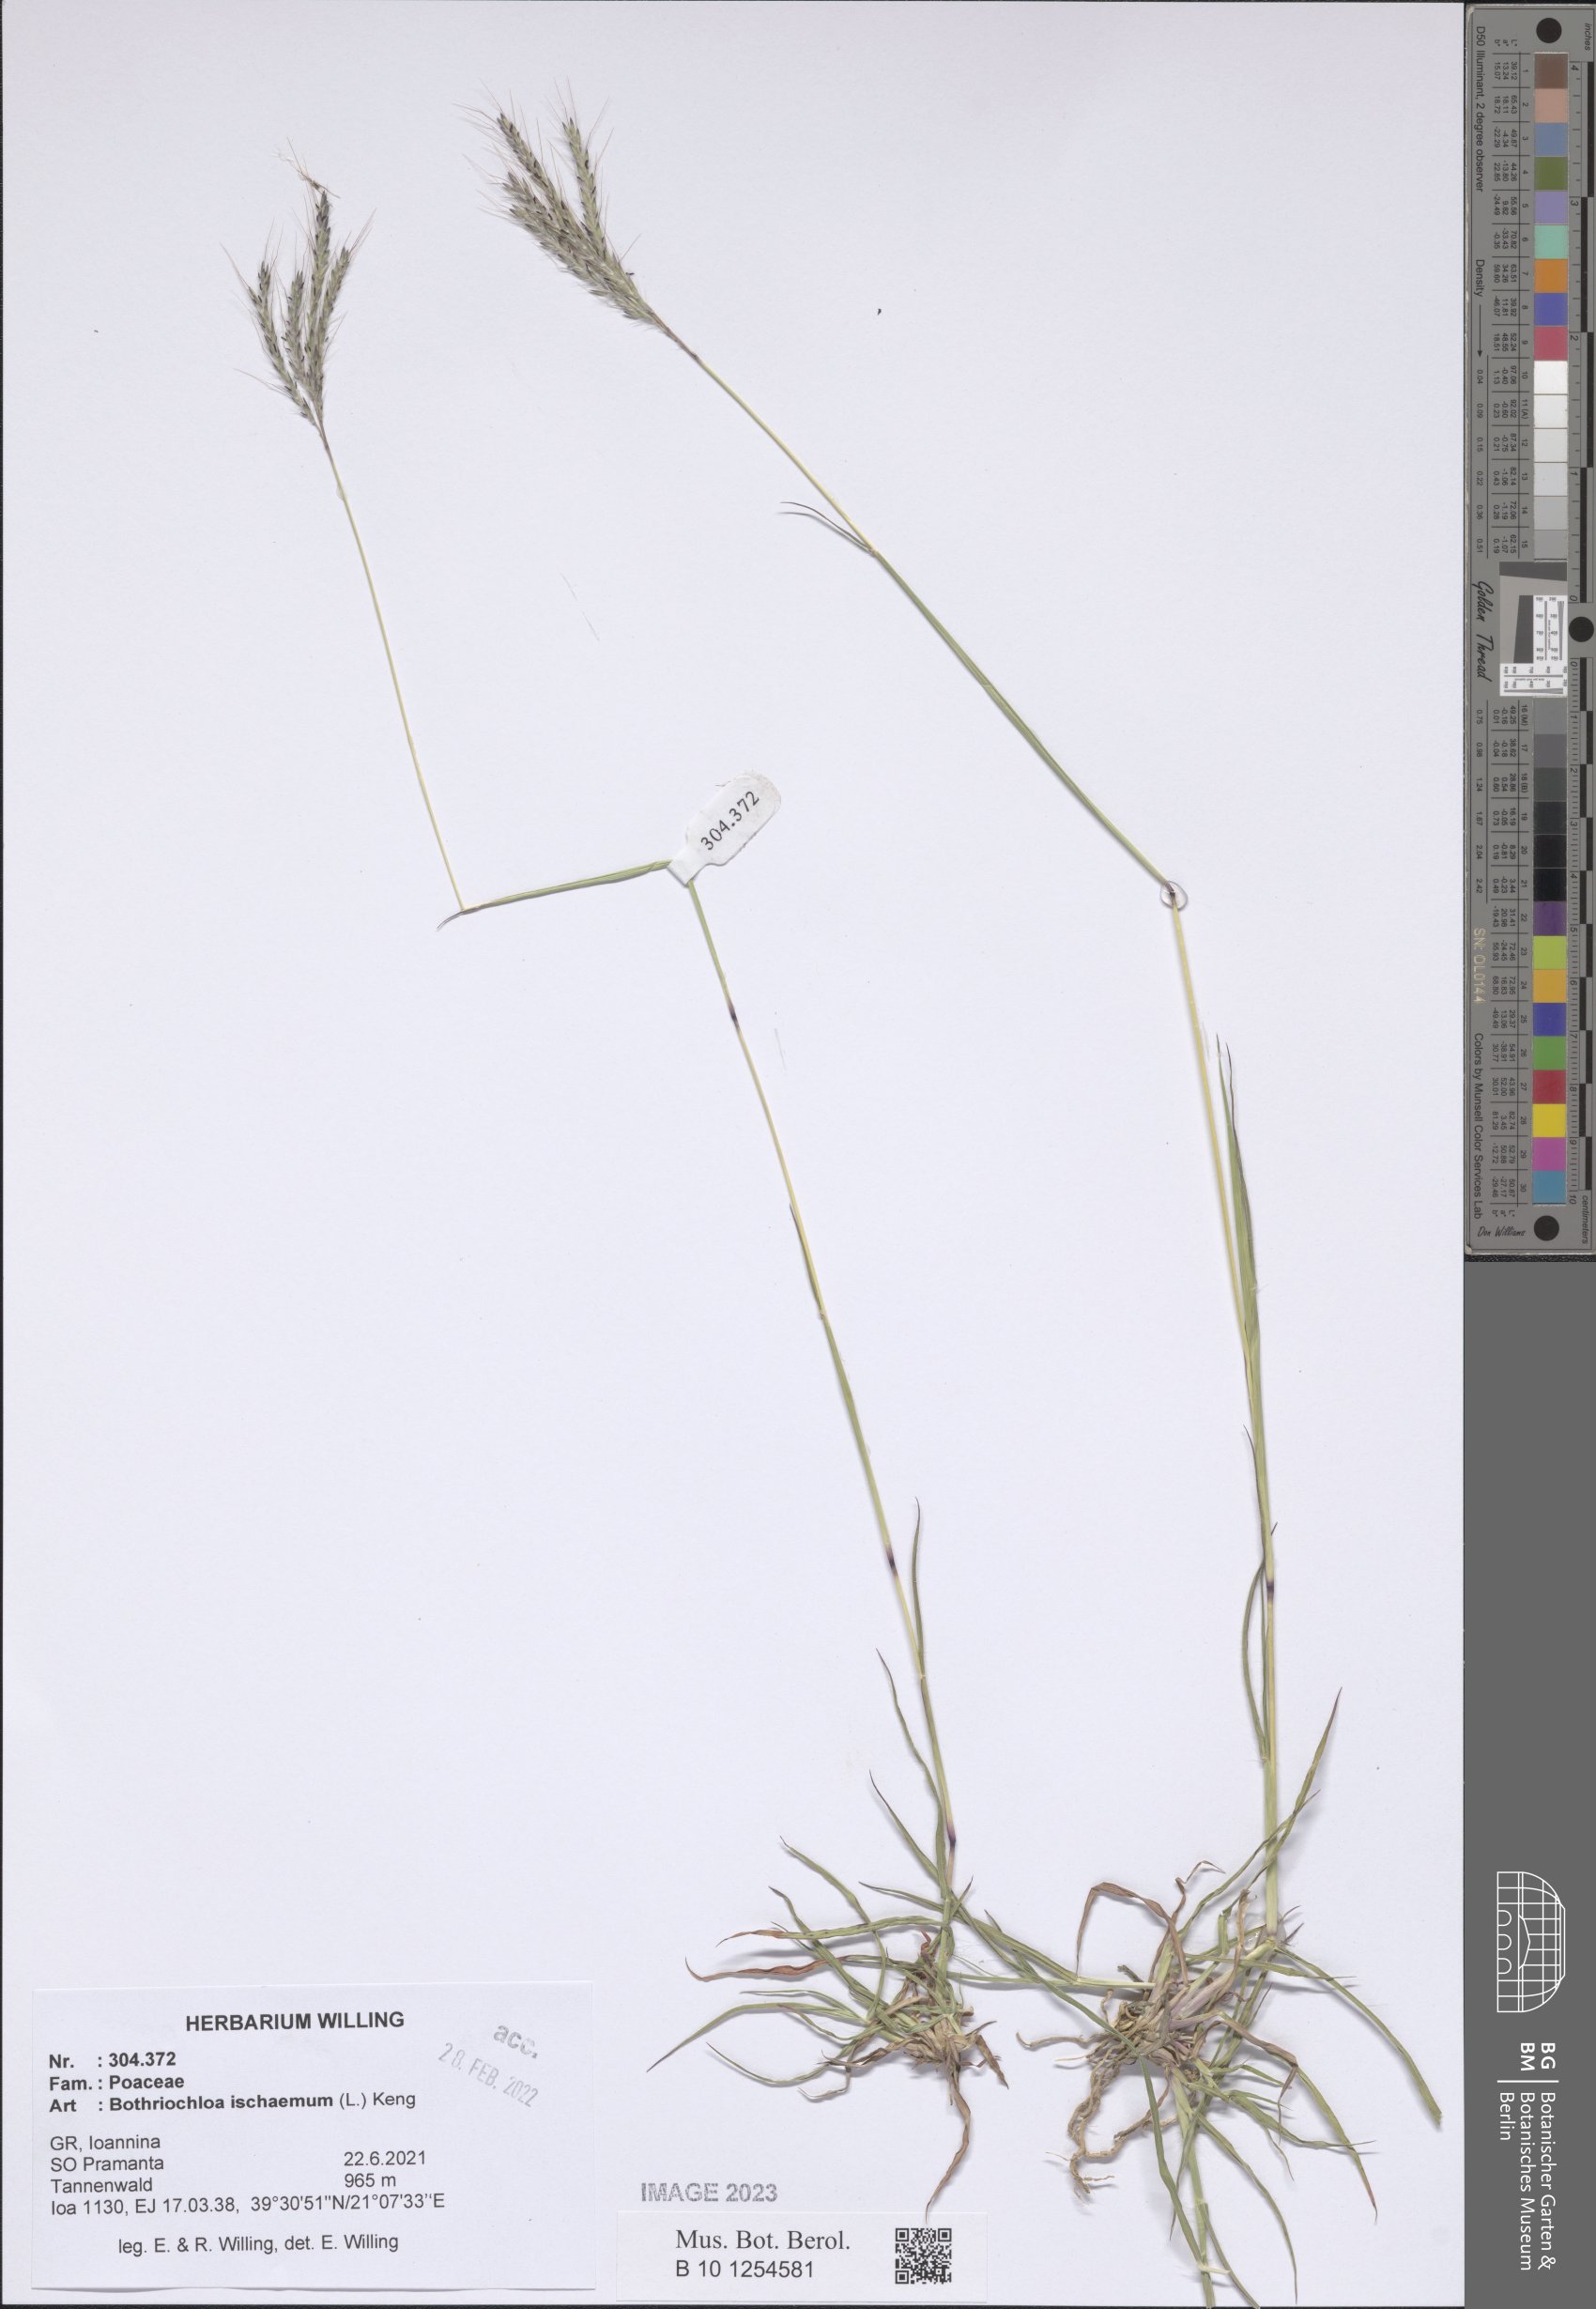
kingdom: Plantae
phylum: Tracheophyta
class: Liliopsida
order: Poales
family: Poaceae
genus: Bothriochloa
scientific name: Bothriochloa ischaemum
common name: Yellow bluestem
